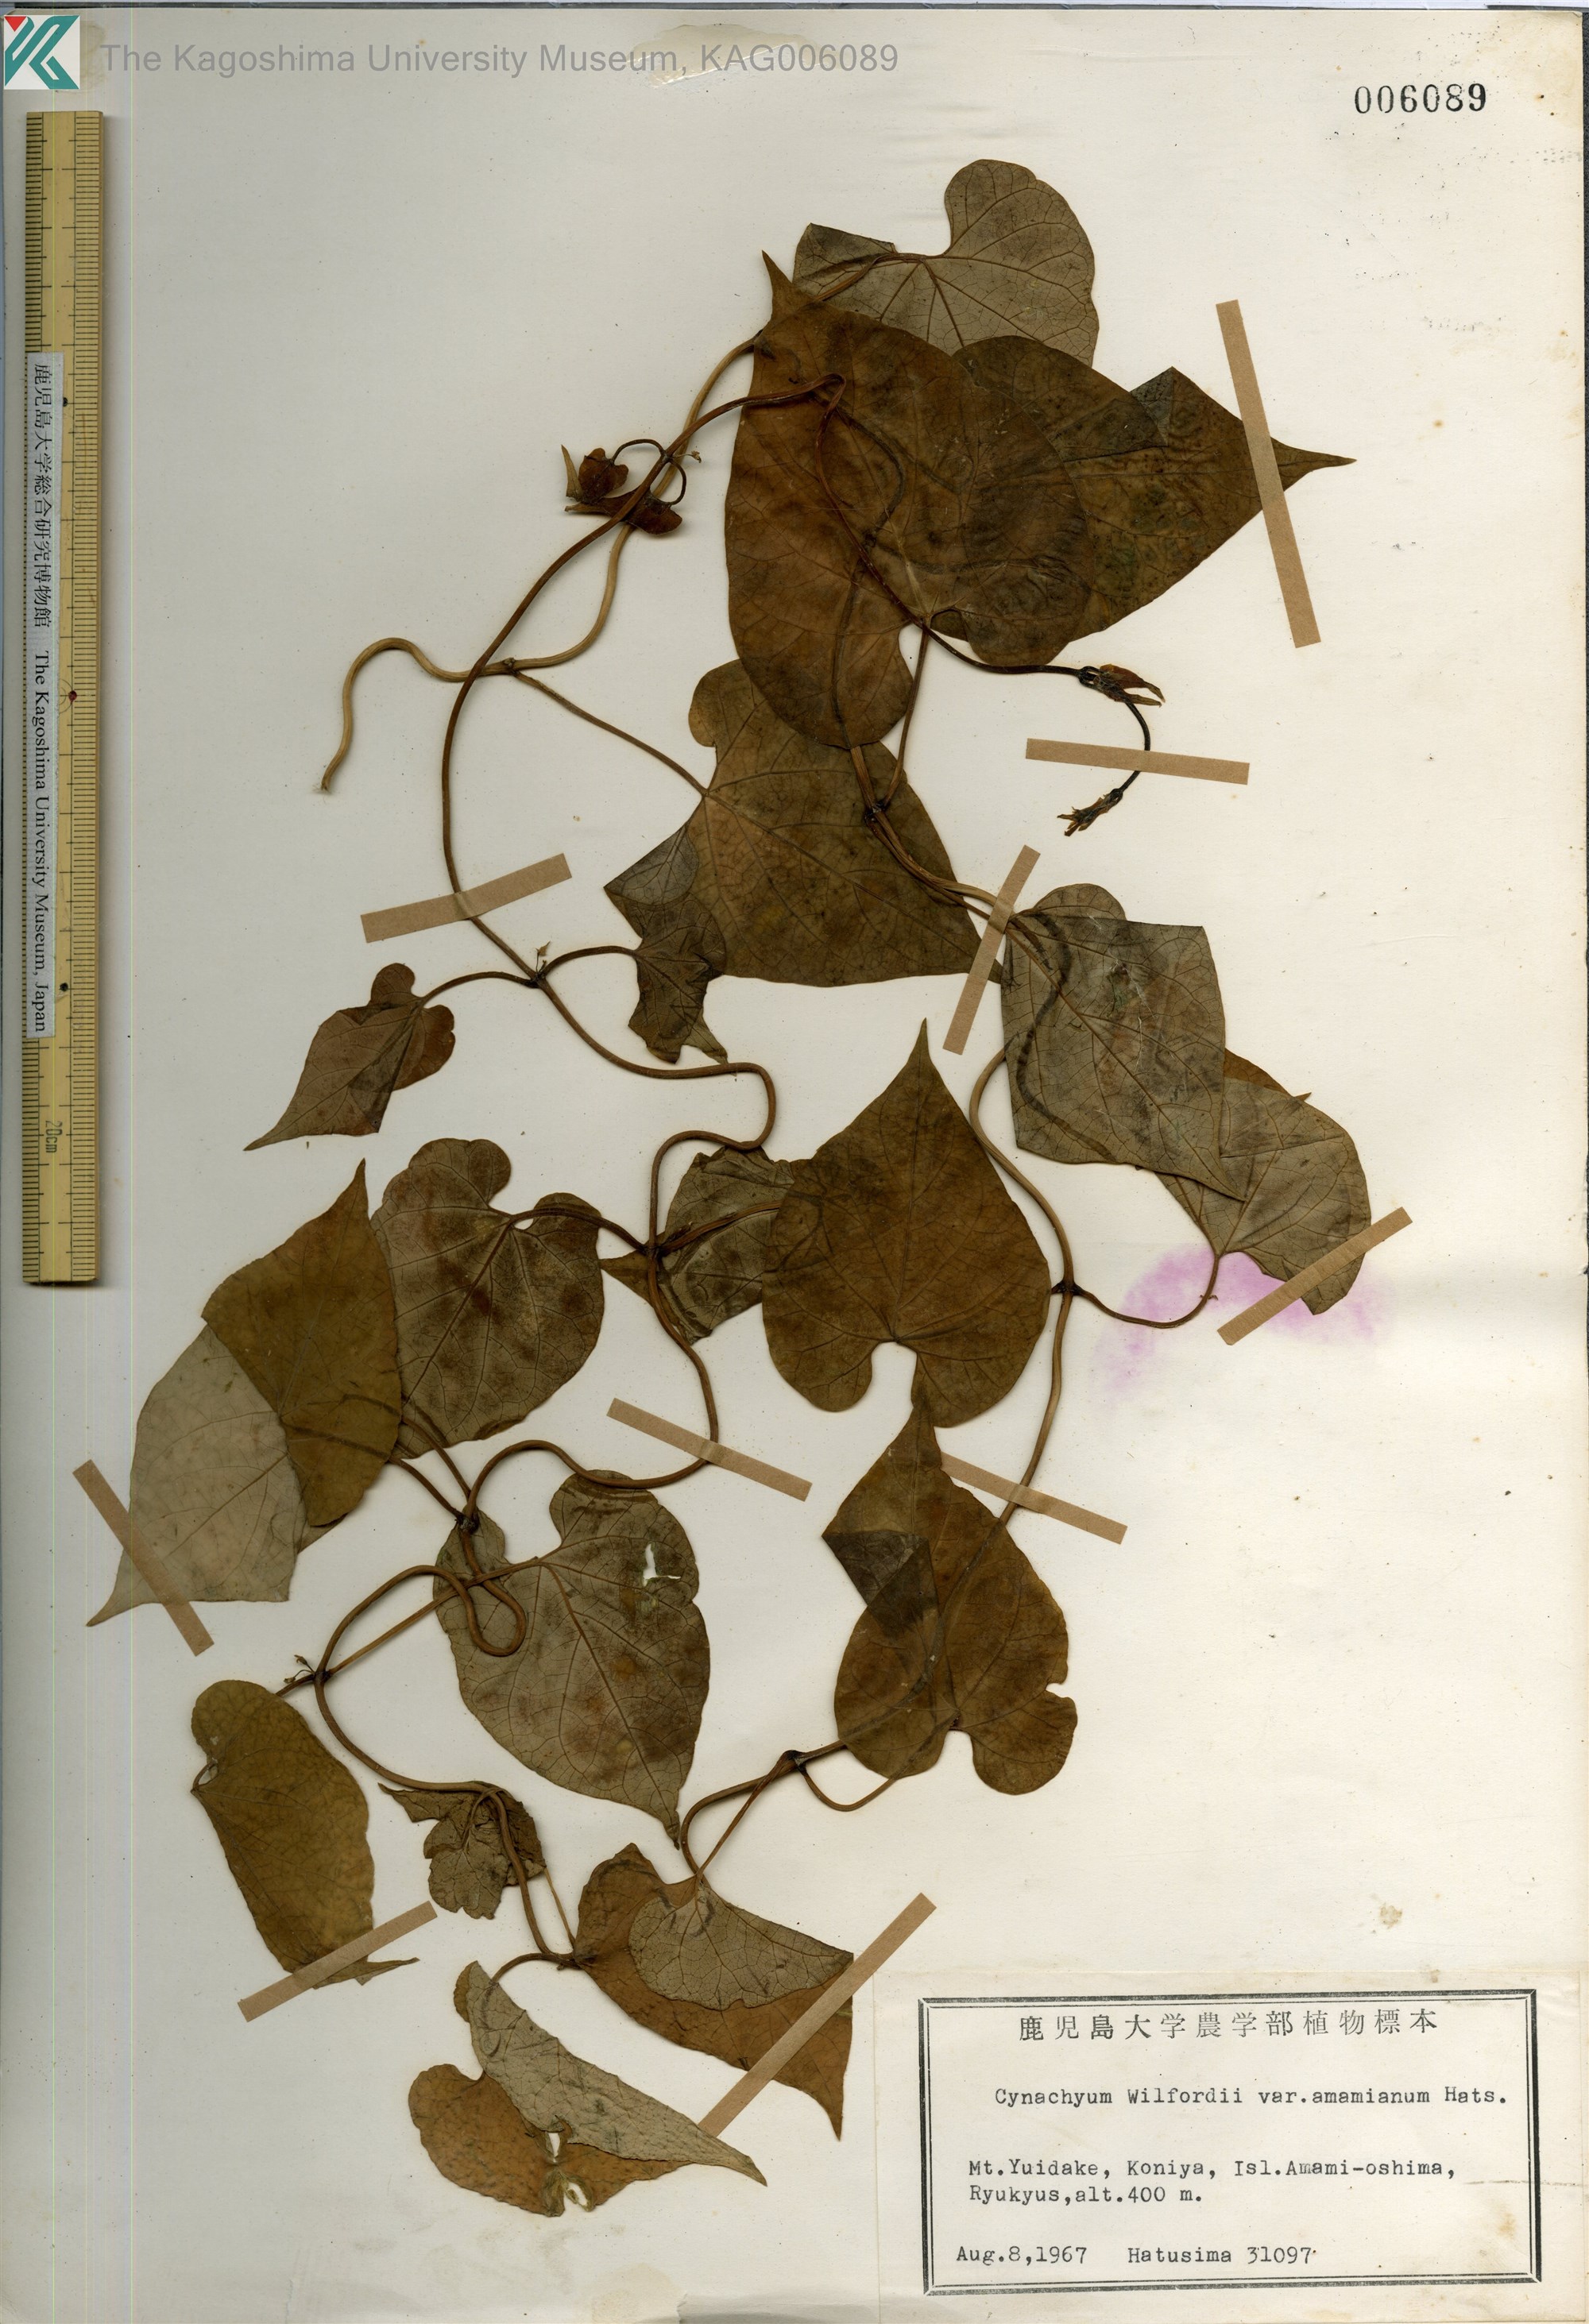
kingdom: Plantae
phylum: Tracheophyta
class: Magnoliopsida
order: Gentianales
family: Apocynaceae
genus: Cynanchum
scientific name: Cynanchum boudieri
